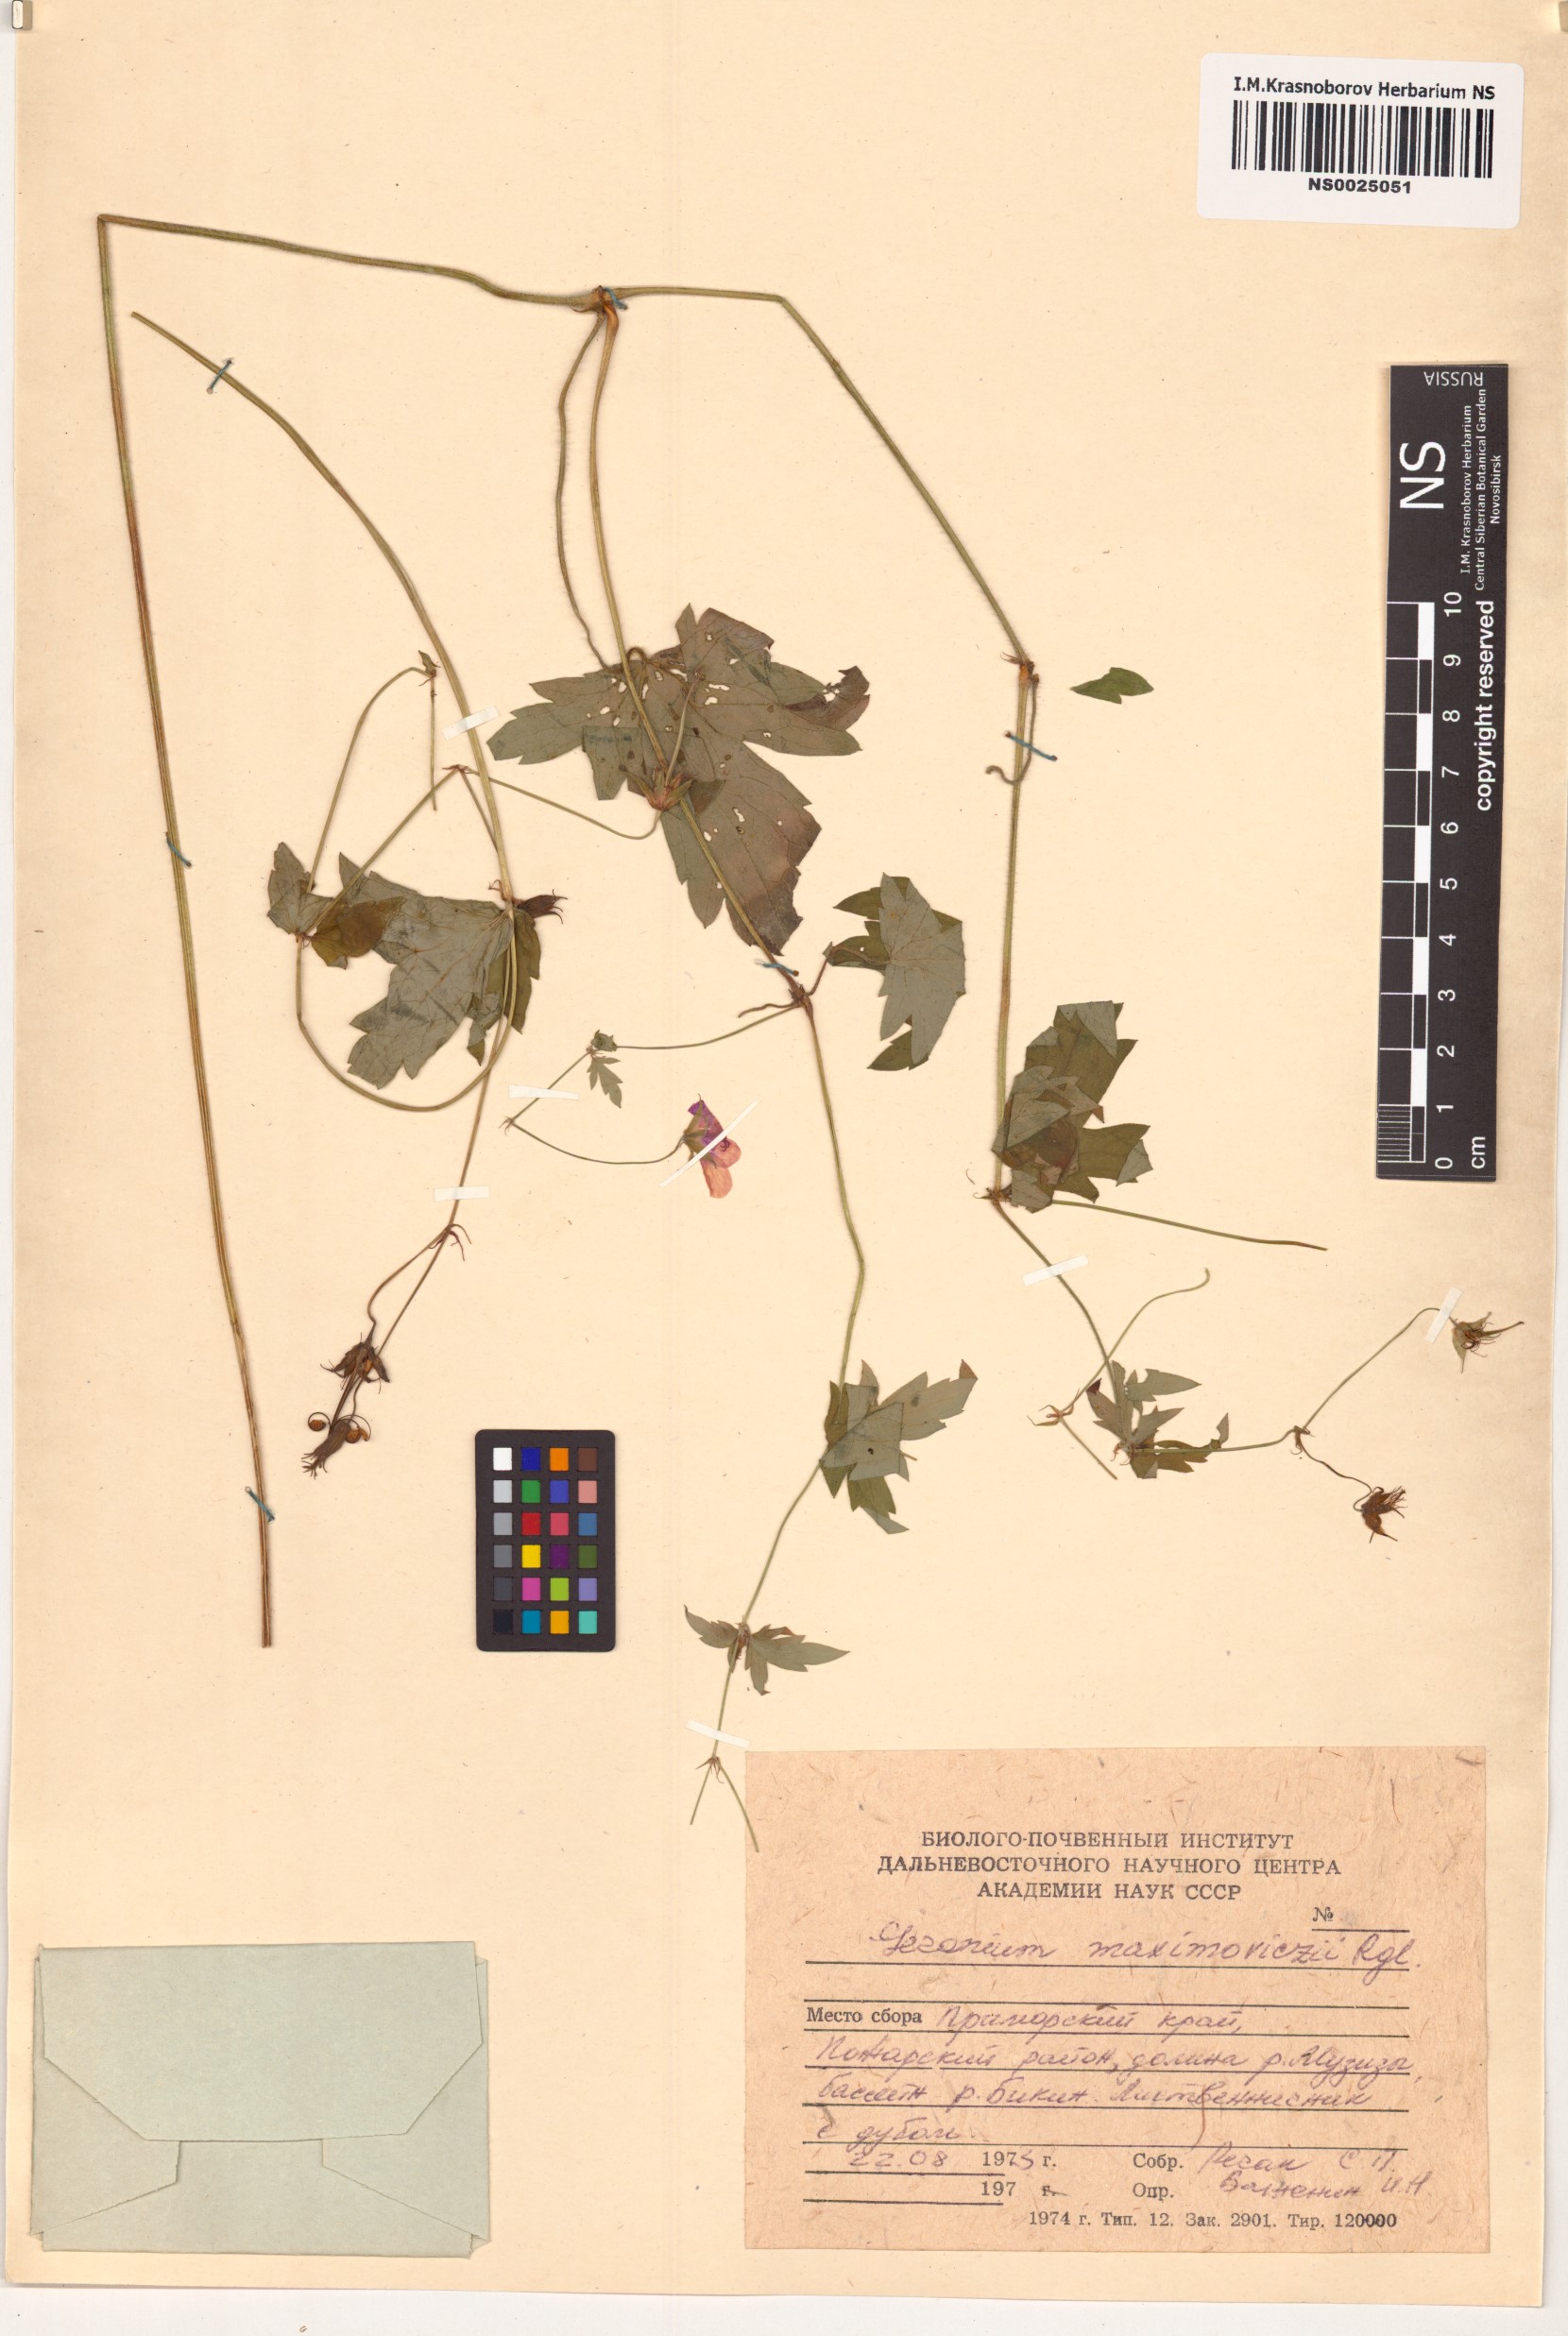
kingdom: Plantae
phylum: Tracheophyta
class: Magnoliopsida
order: Geraniales
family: Geraniaceae
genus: Geranium
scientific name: Geranium maximowiczii
